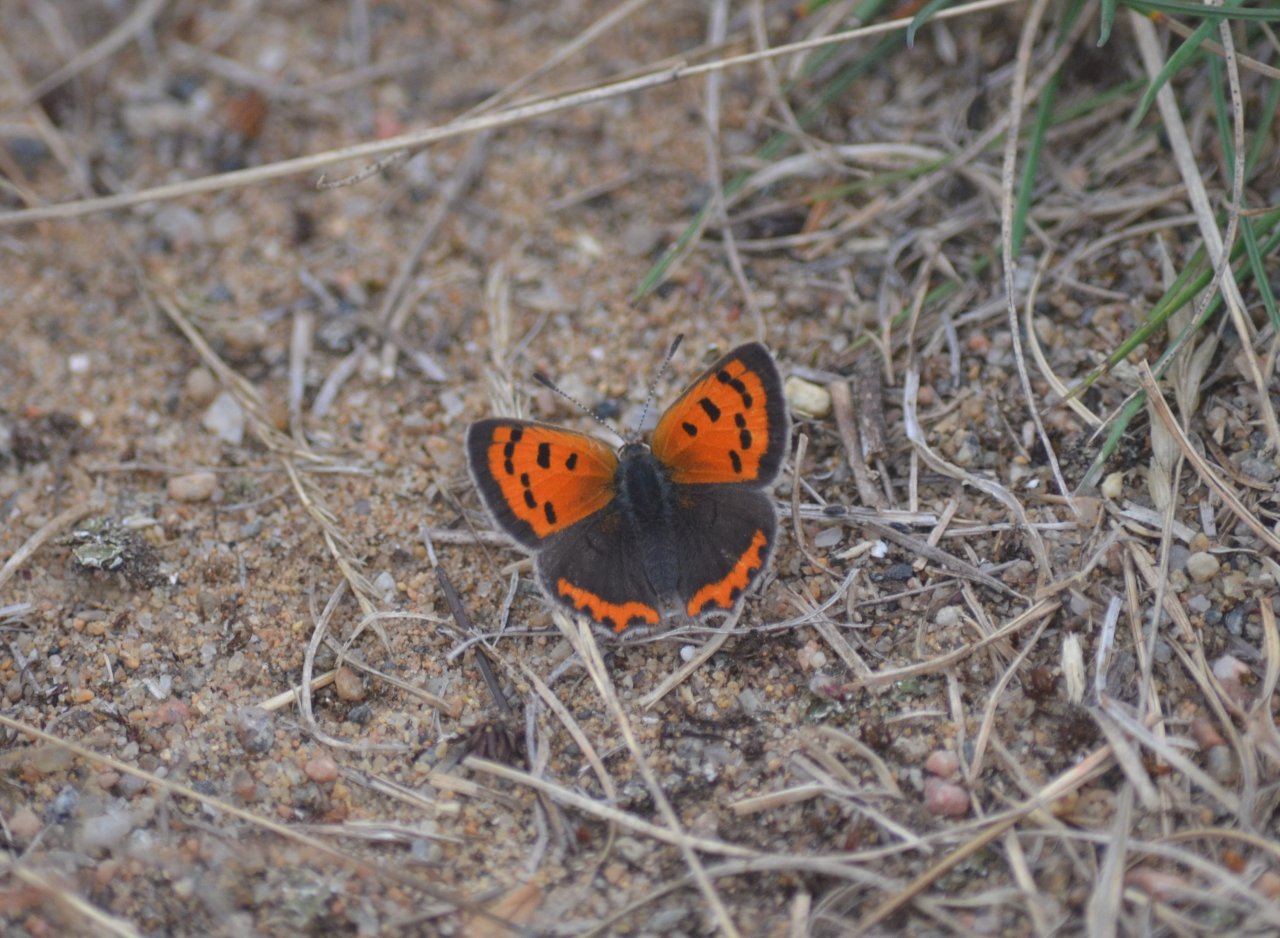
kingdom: Animalia
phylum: Arthropoda
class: Insecta
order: Lepidoptera
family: Lycaenidae
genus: Lycaena
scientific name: Lycaena phlaeas
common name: American Copper
